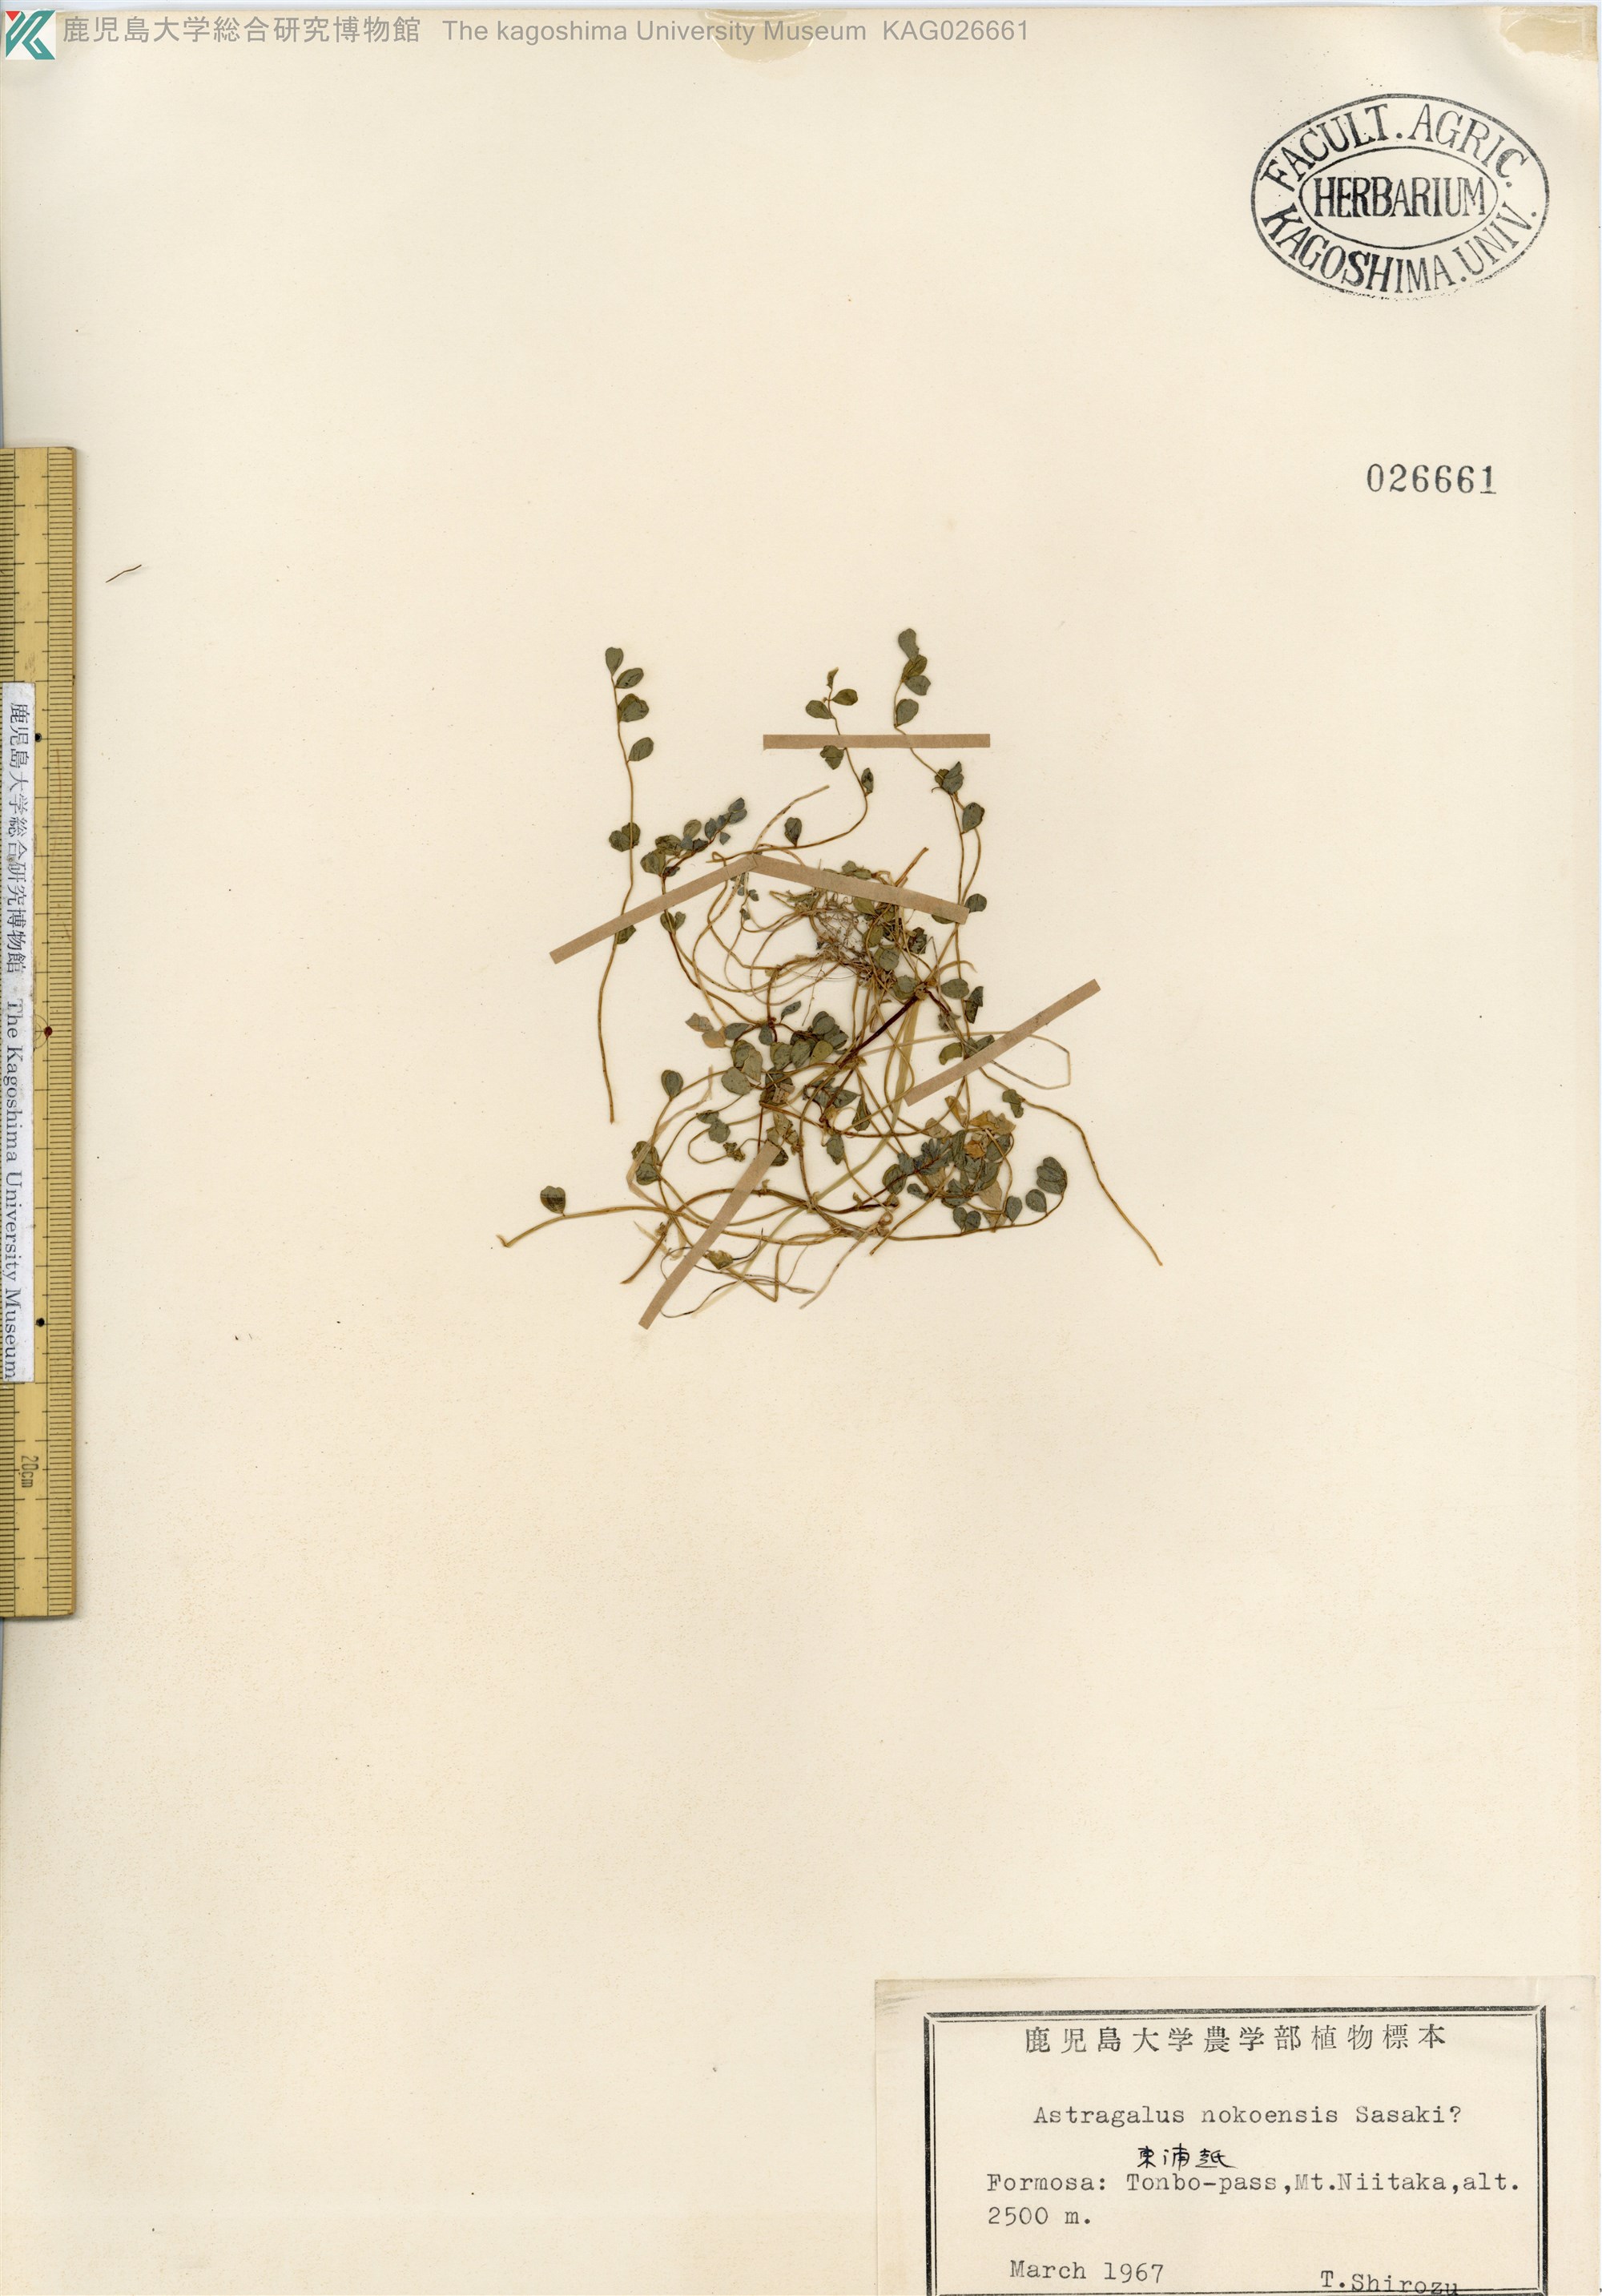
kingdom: Plantae
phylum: Tracheophyta
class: Magnoliopsida
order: Fabales
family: Fabaceae
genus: Astragalus
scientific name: Astragalus nokoensis
